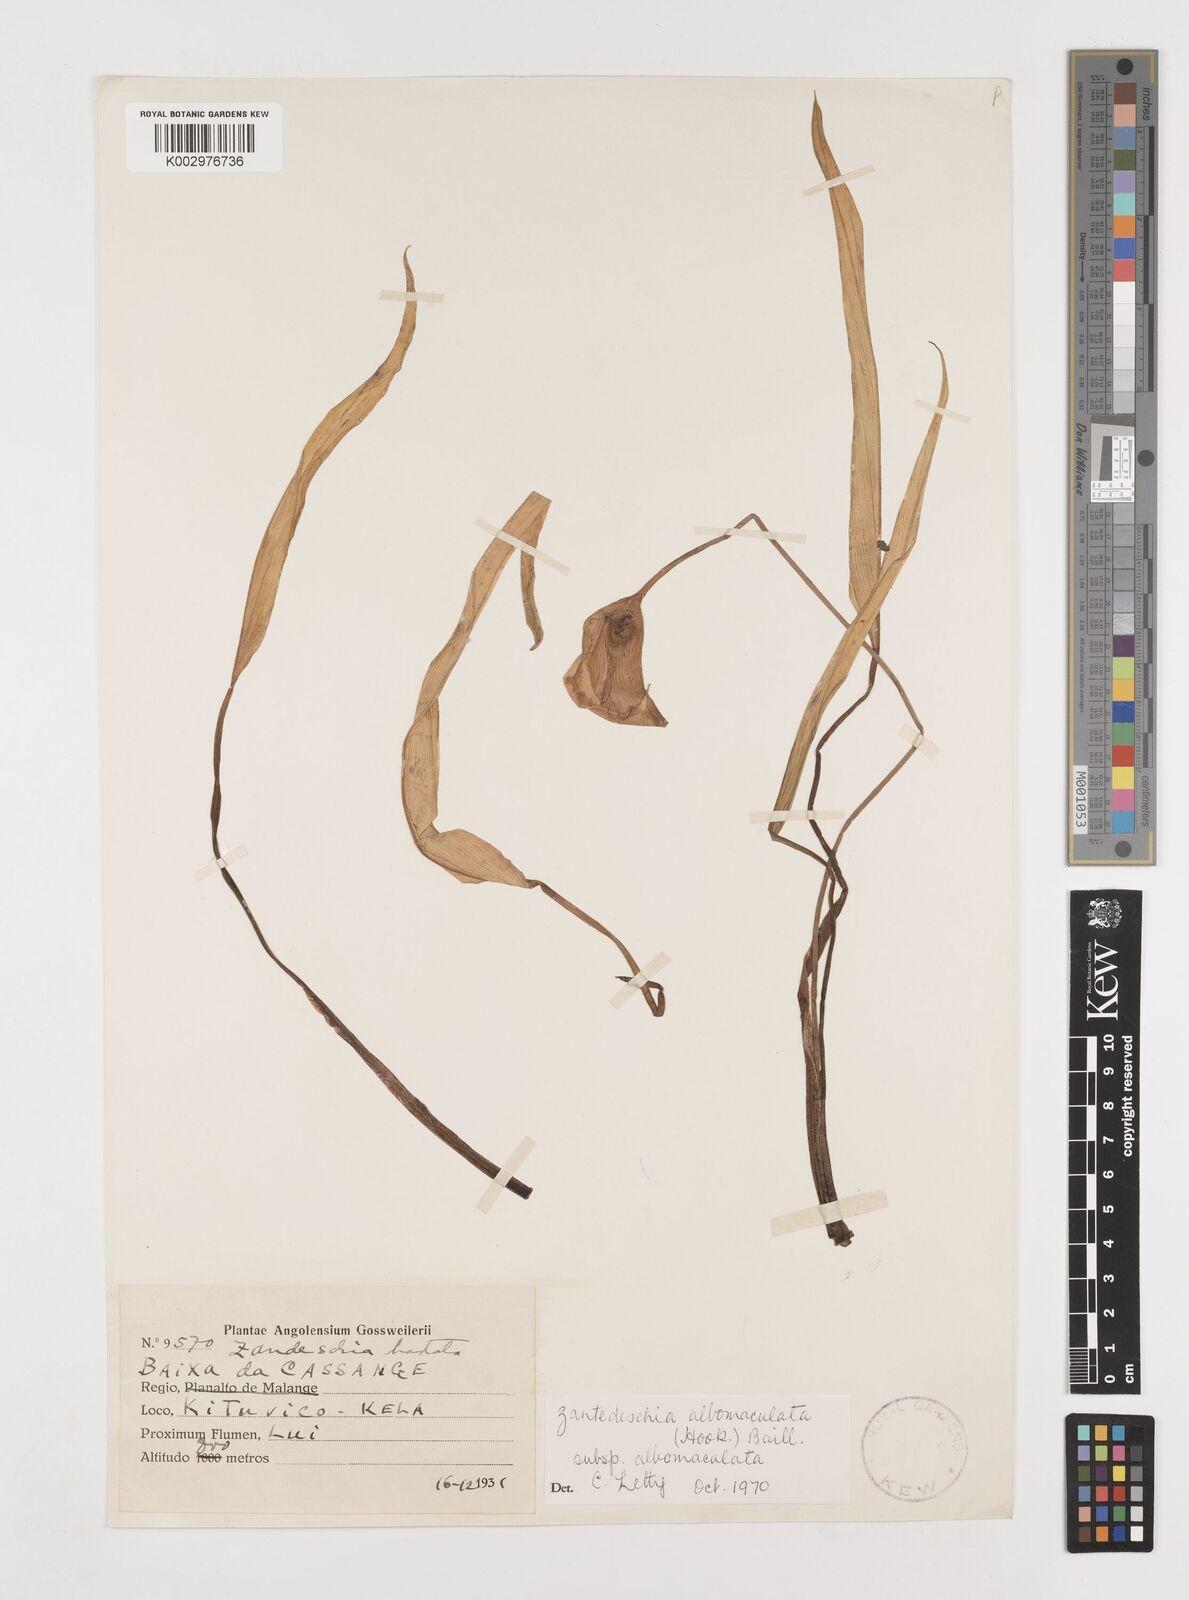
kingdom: Plantae
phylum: Tracheophyta
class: Liliopsida
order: Alismatales
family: Araceae
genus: Zantedeschia
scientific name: Zantedeschia albomaculata
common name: Spotted calla lily
